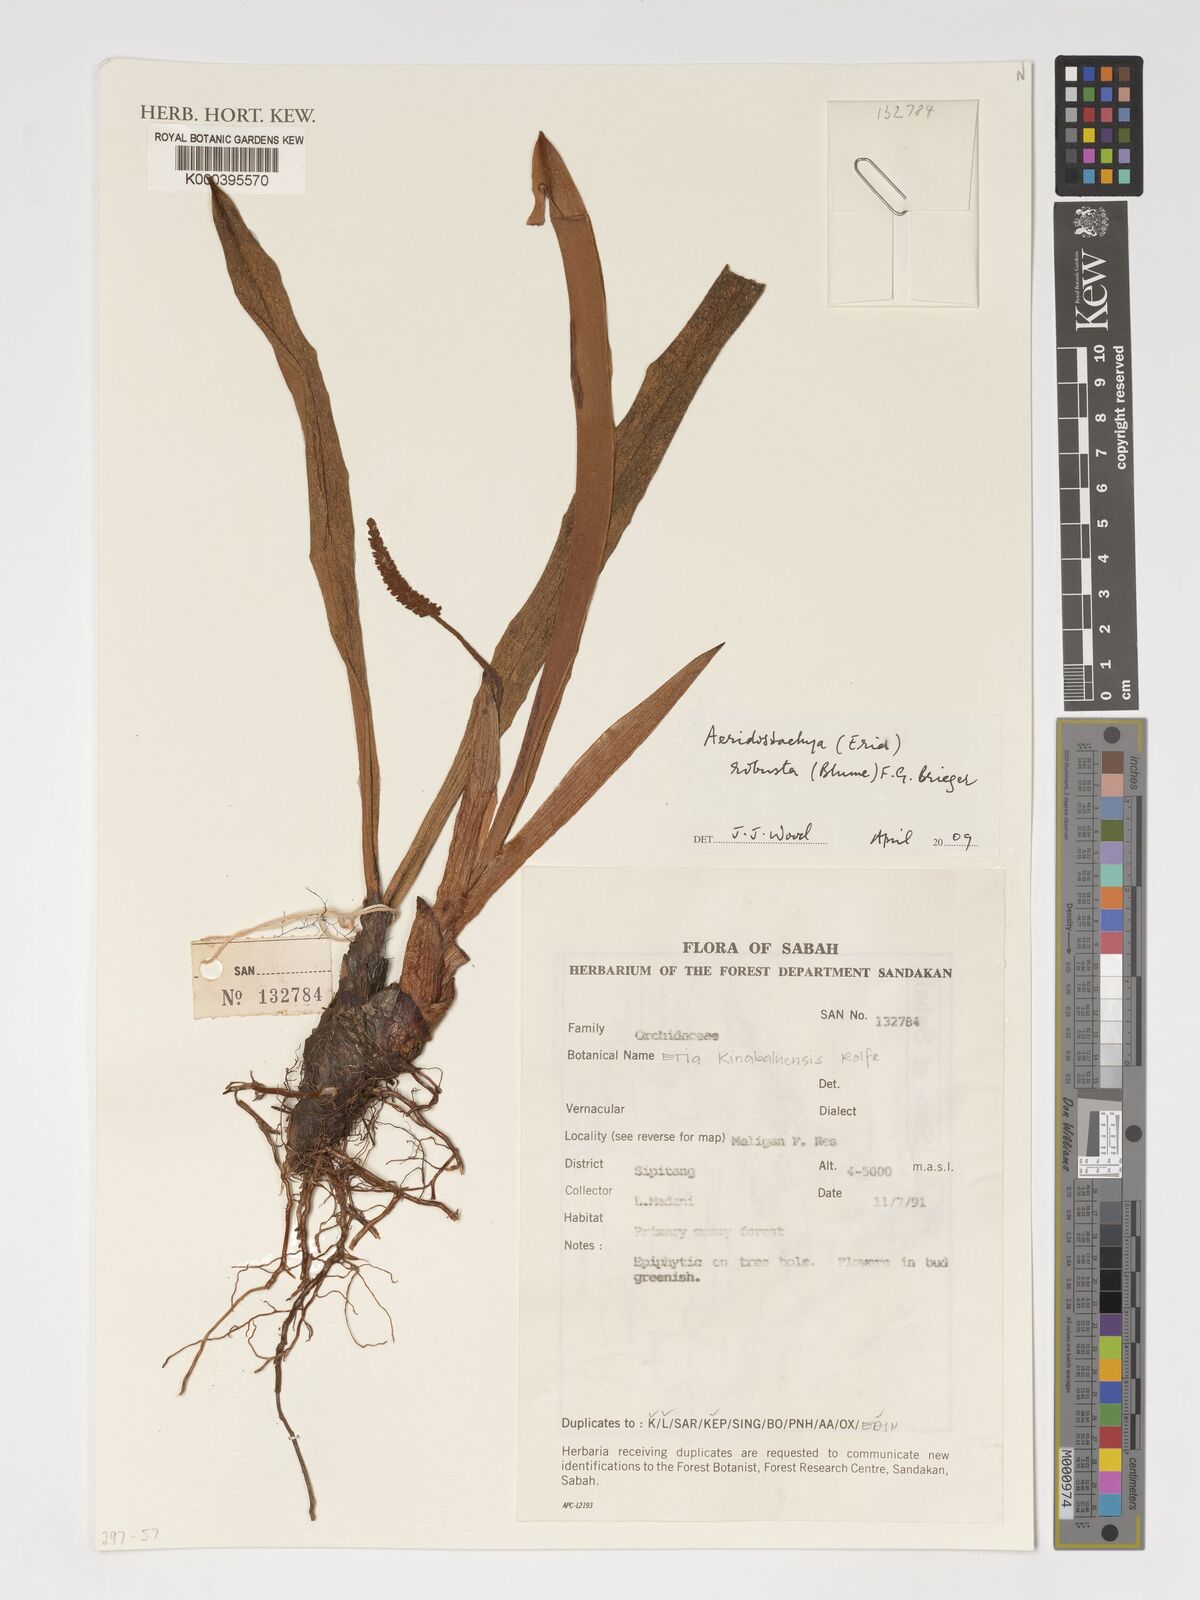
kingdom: Plantae
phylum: Tracheophyta
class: Liliopsida
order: Asparagales
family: Orchidaceae
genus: Aeridostachya
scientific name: Aeridostachya robusta
